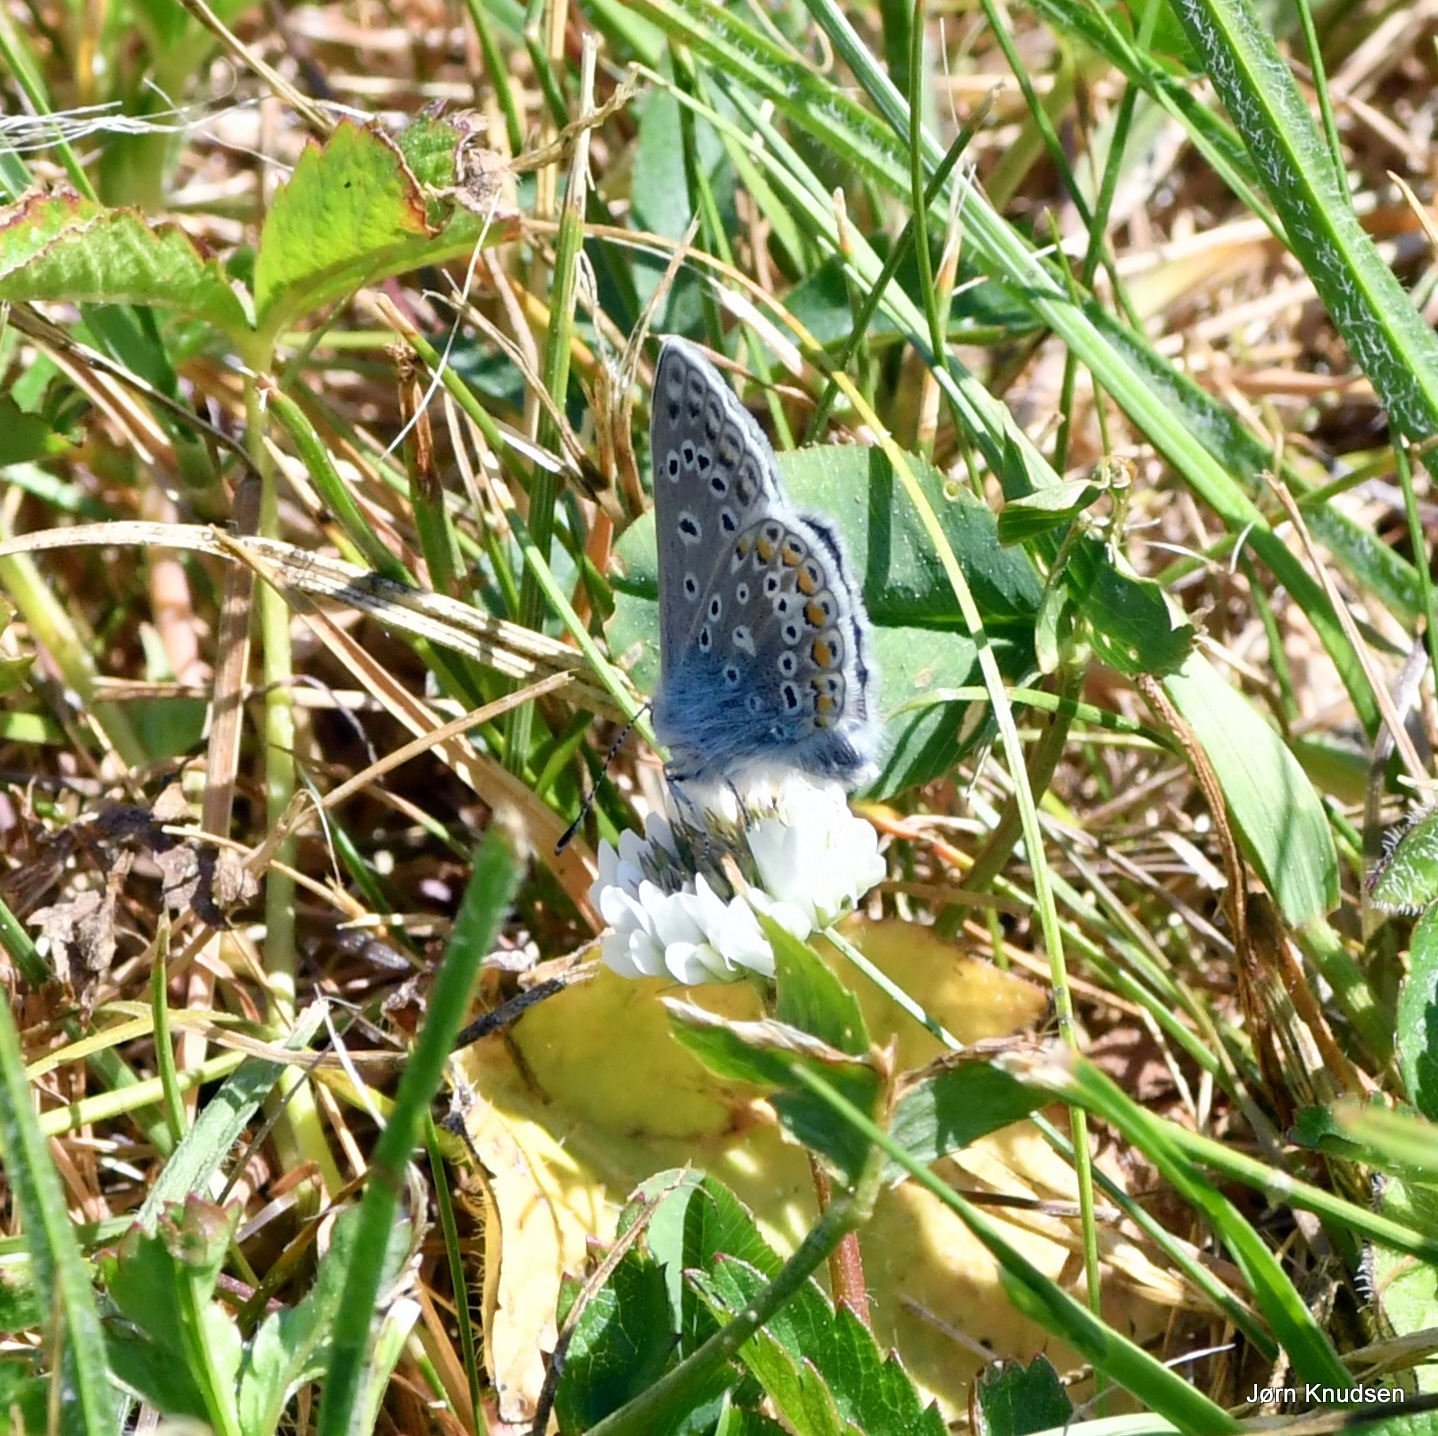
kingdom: Animalia
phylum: Arthropoda
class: Insecta
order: Lepidoptera
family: Lycaenidae
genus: Polyommatus
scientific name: Polyommatus icarus
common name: Almindelig blåfugl
